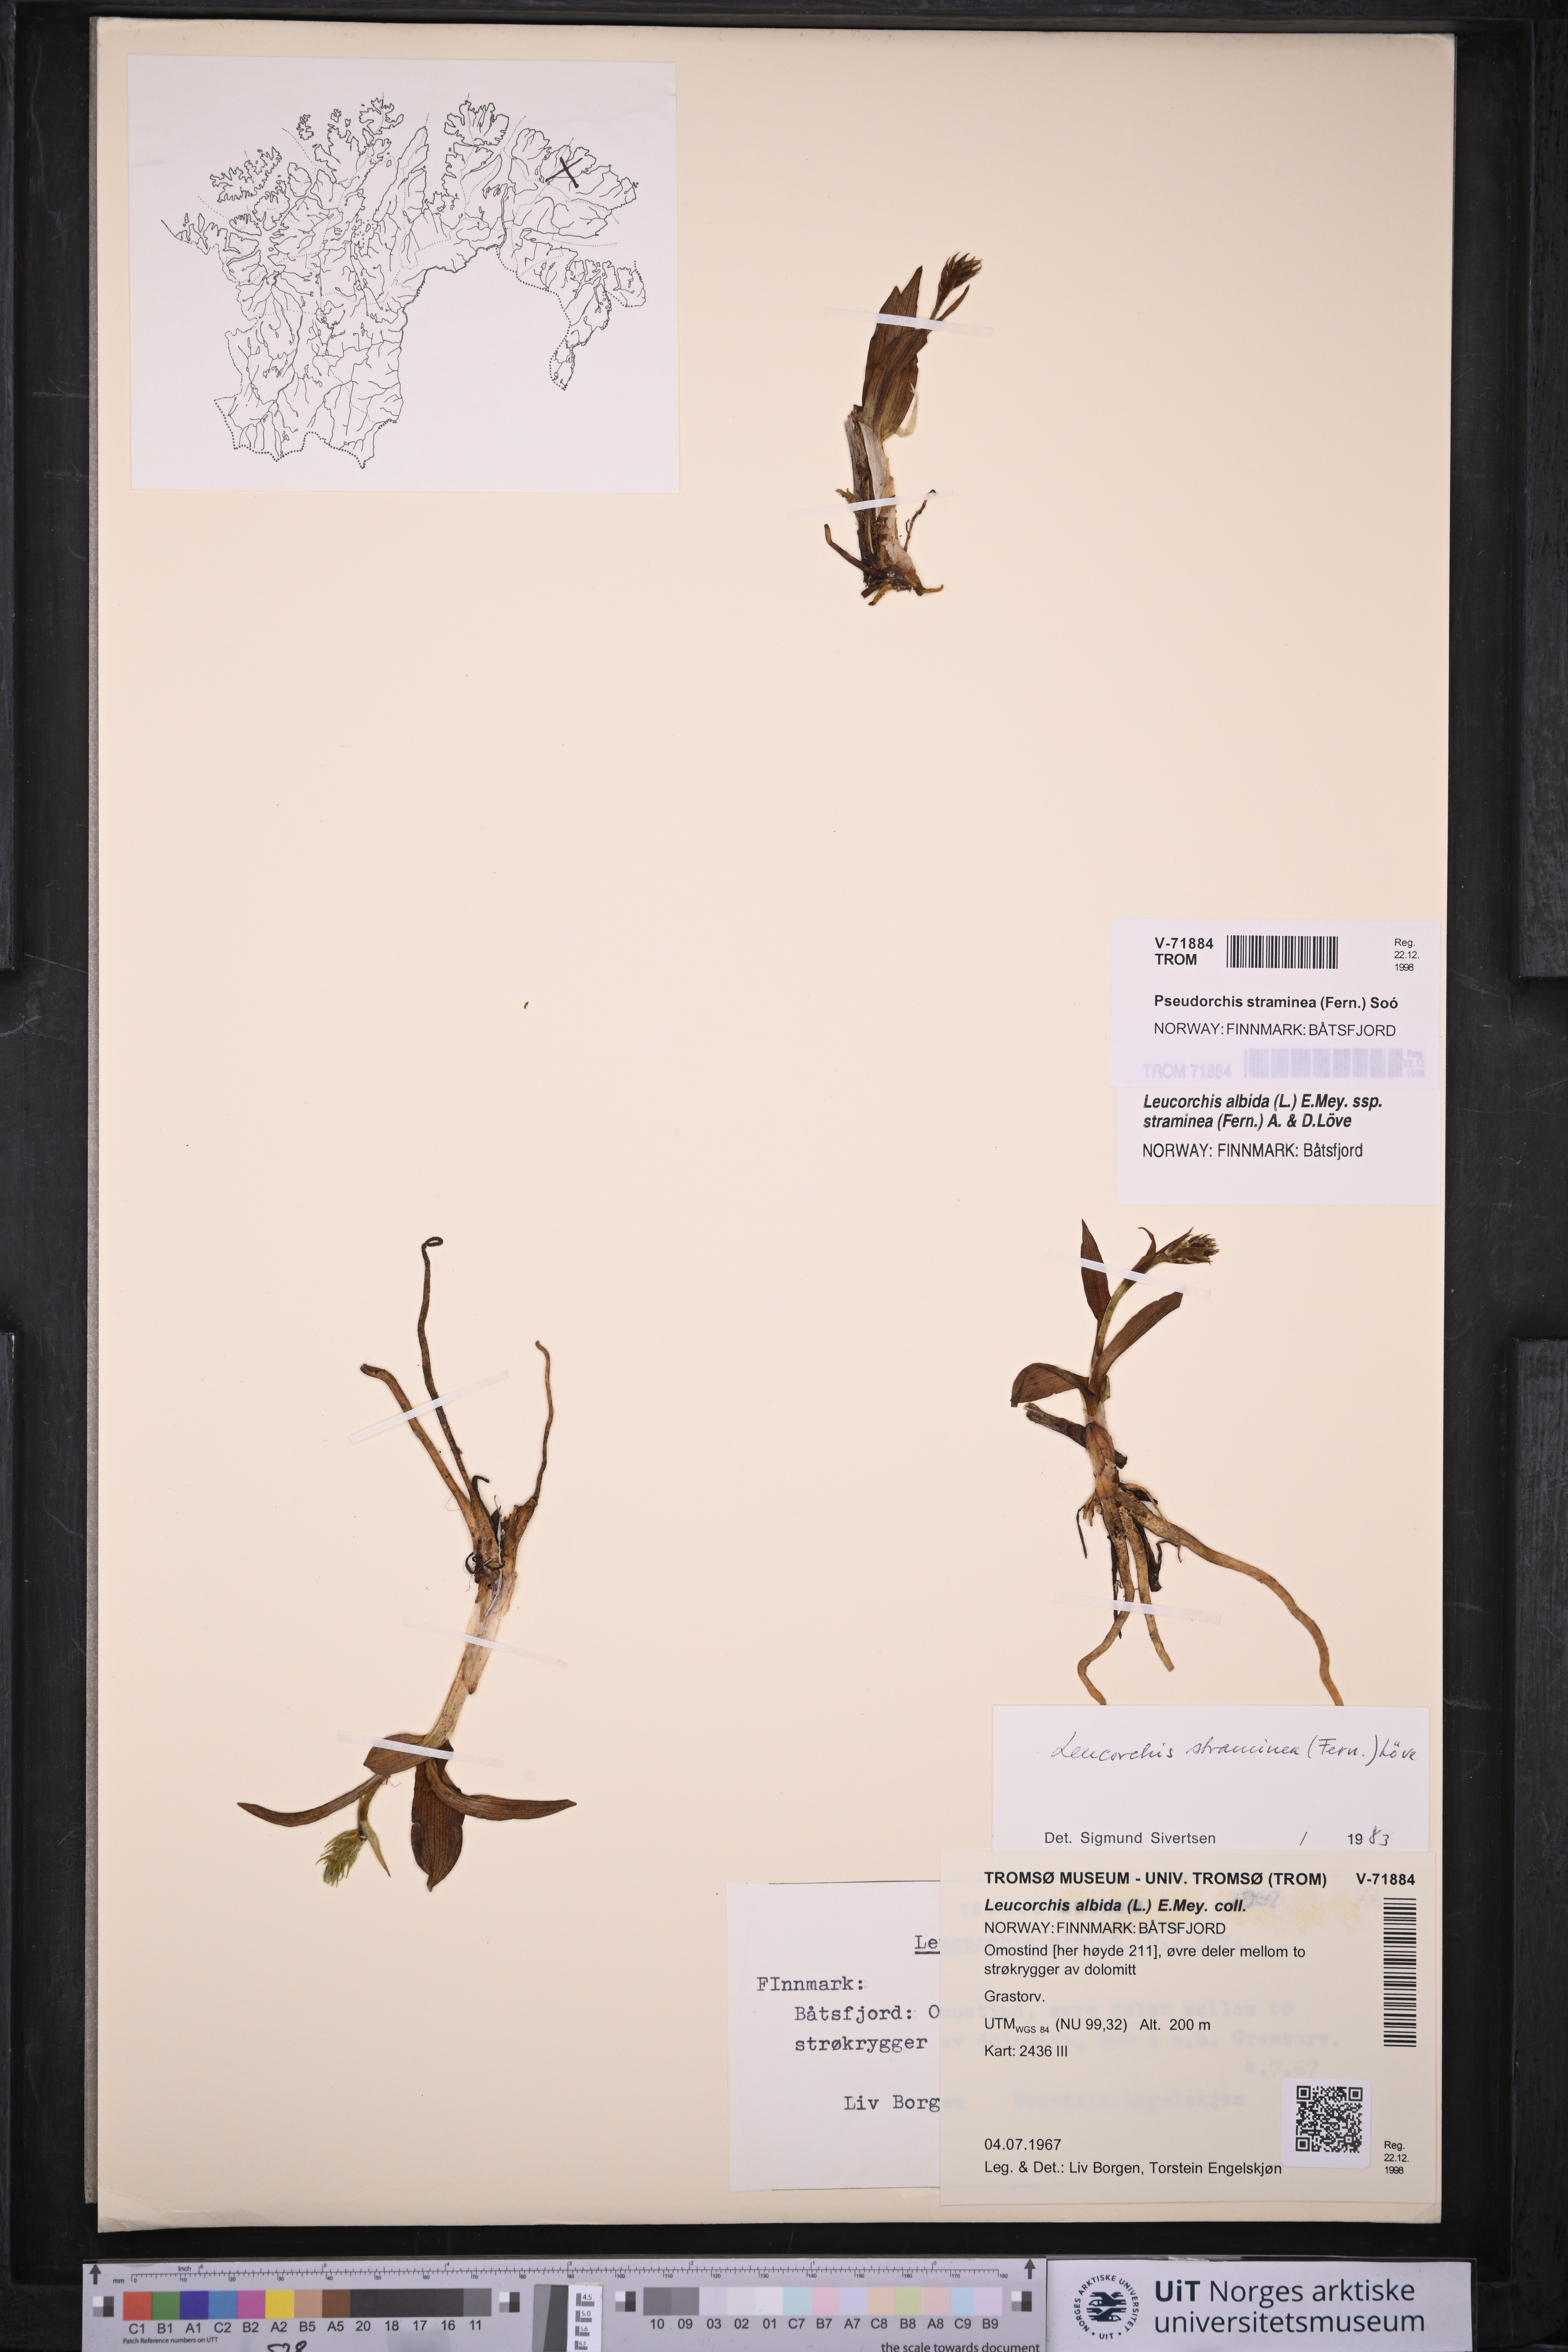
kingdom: Plantae
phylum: Tracheophyta
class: Liliopsida
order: Asparagales
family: Orchidaceae
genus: Pseudorchis
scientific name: Pseudorchis straminea
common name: Vanilla-scented bog orchid
